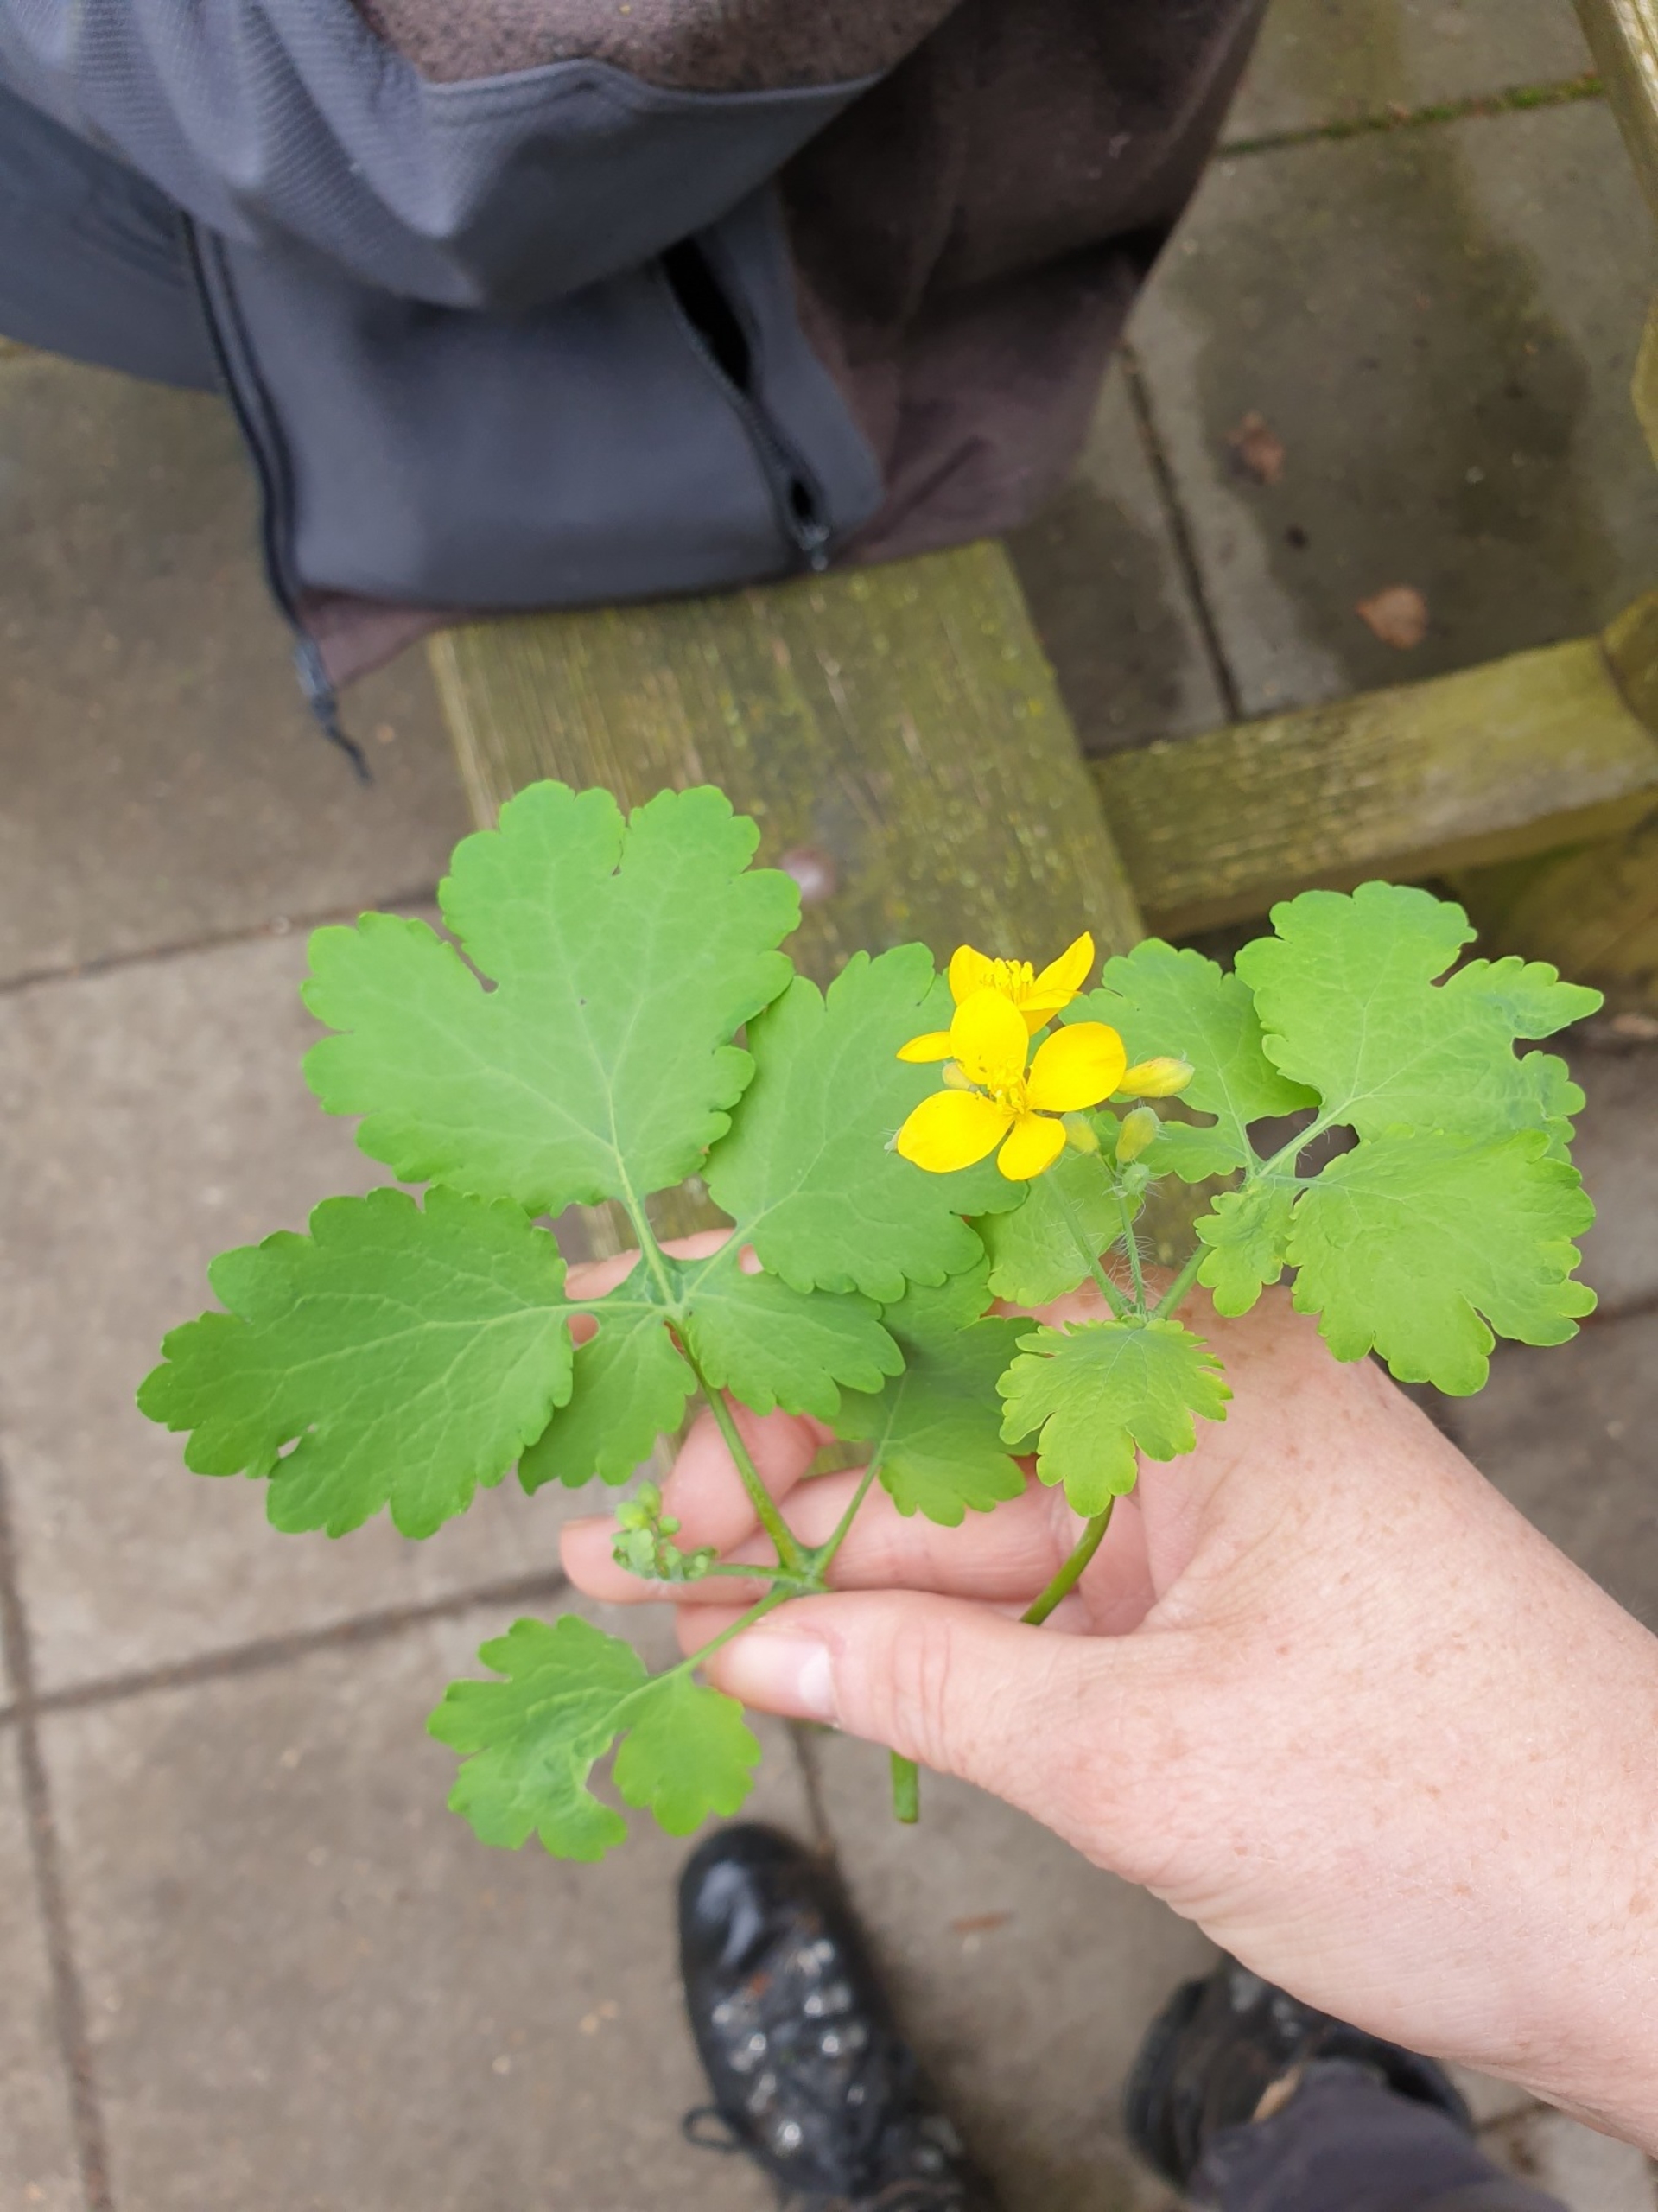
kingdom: Plantae
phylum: Tracheophyta
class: Magnoliopsida
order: Ranunculales
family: Papaveraceae
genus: Chelidonium
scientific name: Chelidonium majus
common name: Svaleurt
